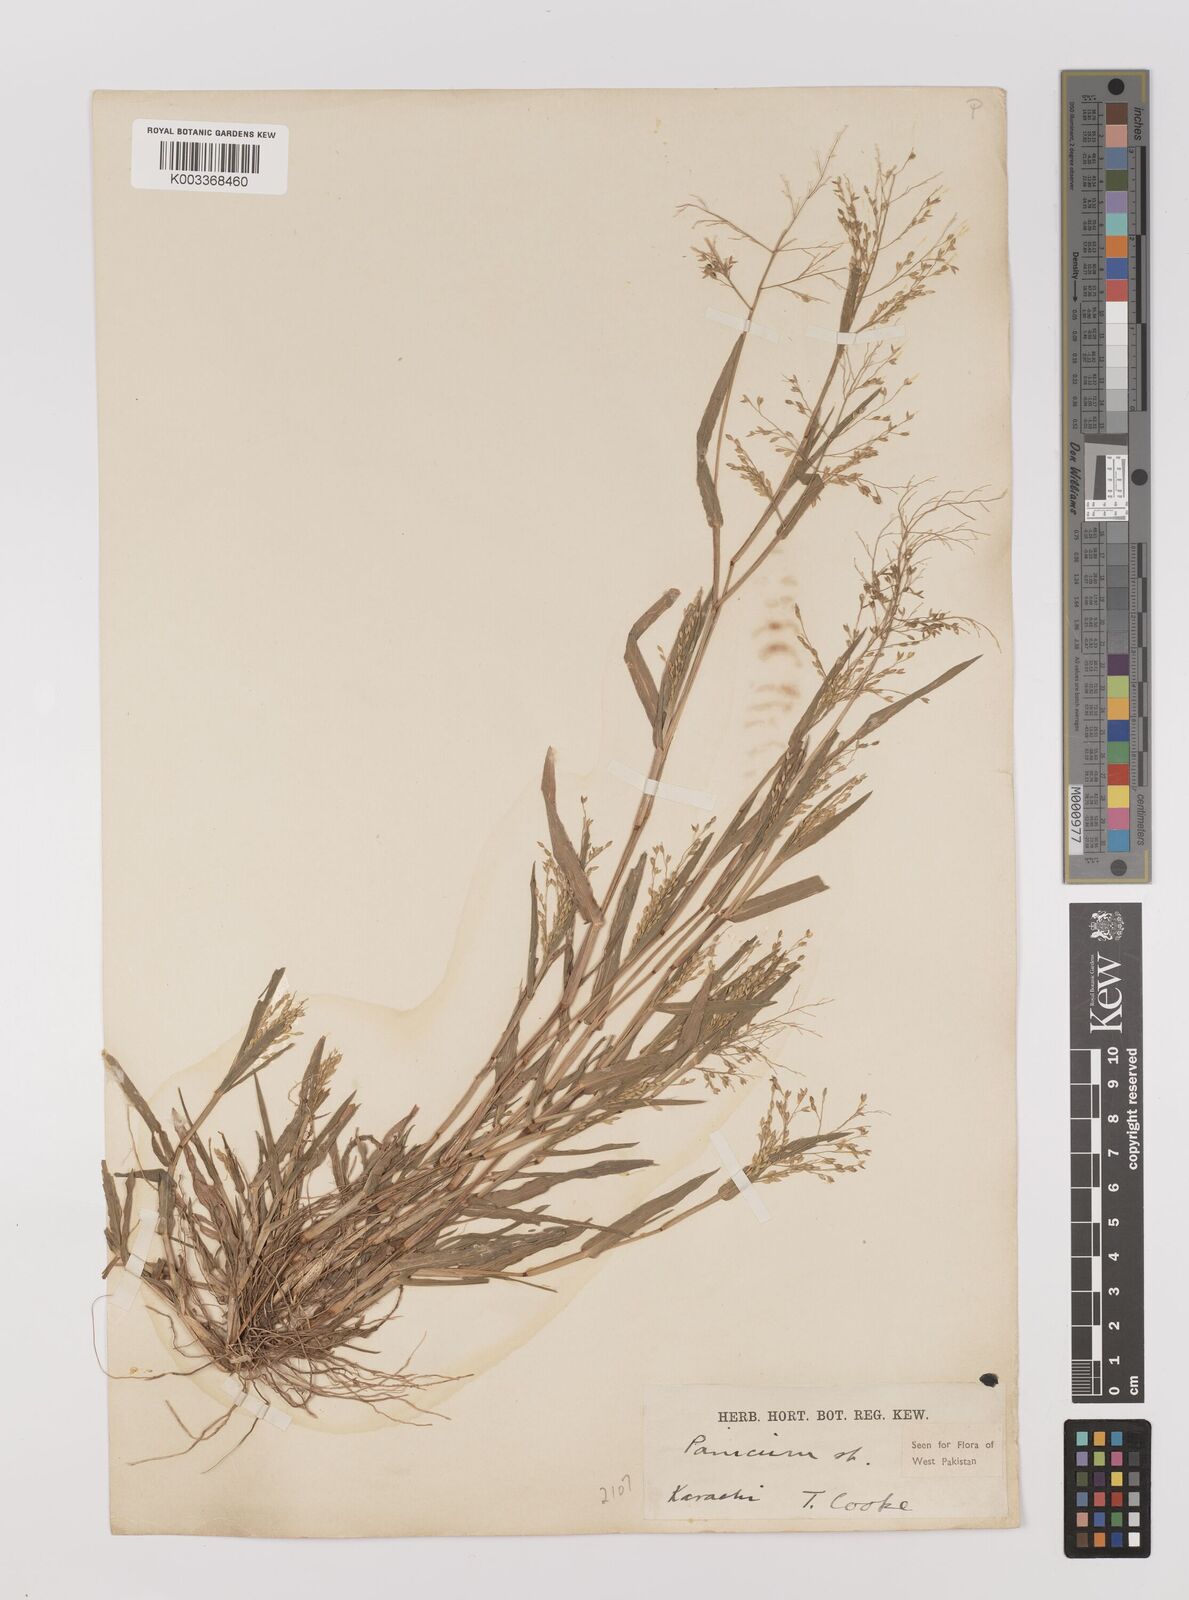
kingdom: Plantae
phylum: Tracheophyta
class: Liliopsida
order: Poales
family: Poaceae
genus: Panicum
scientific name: Panicum sumatrense
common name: Little millet
